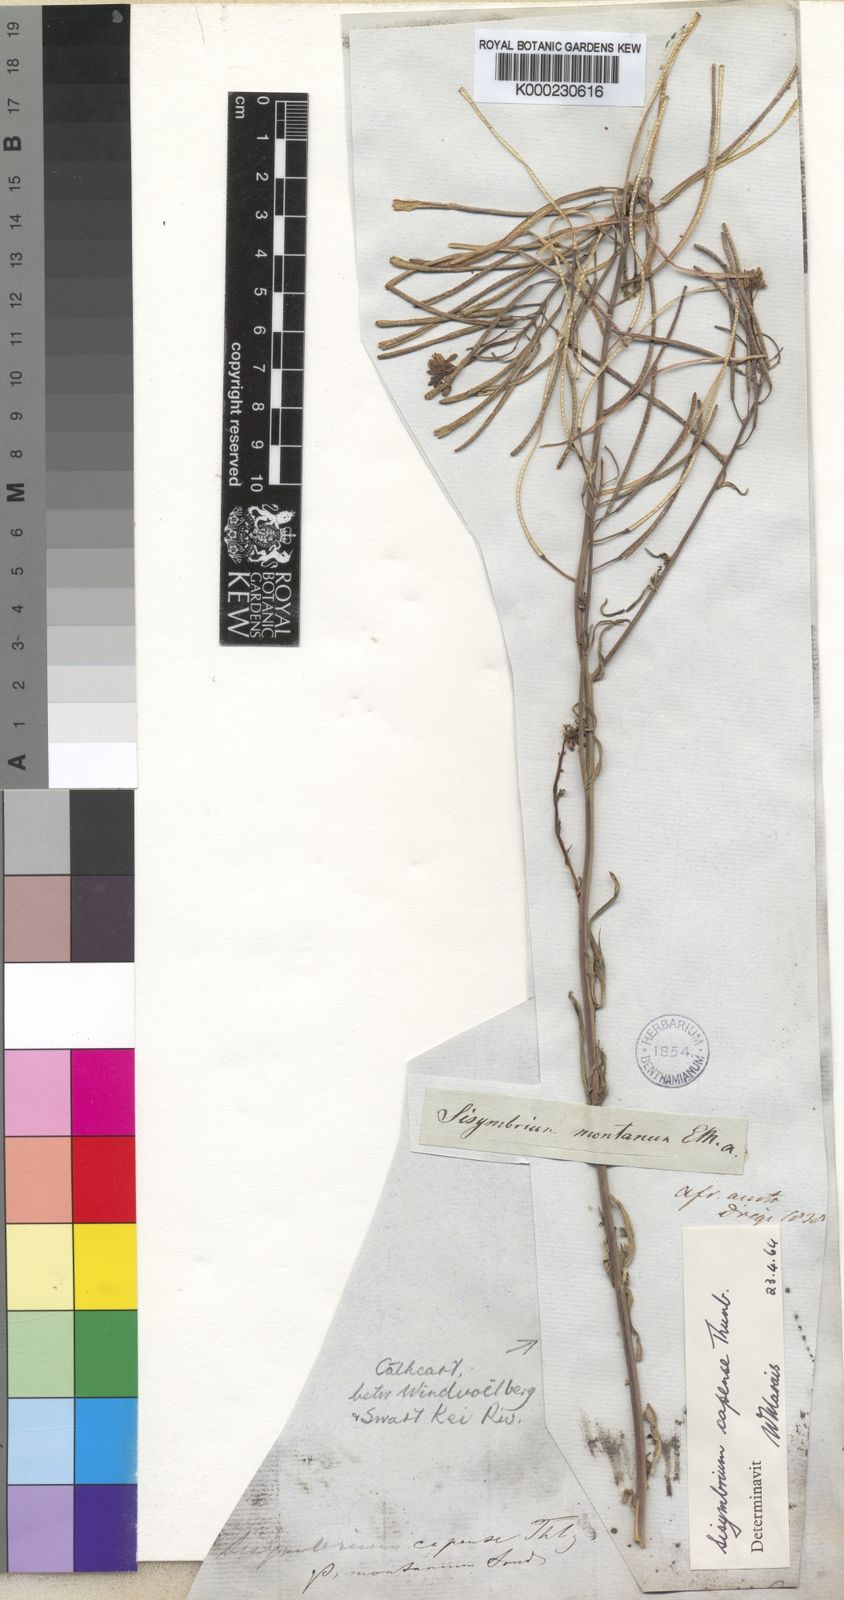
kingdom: Plantae
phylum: Tracheophyta
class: Magnoliopsida
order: Brassicales
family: Brassicaceae
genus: Sisymbrium
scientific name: Sisymbrium capense
